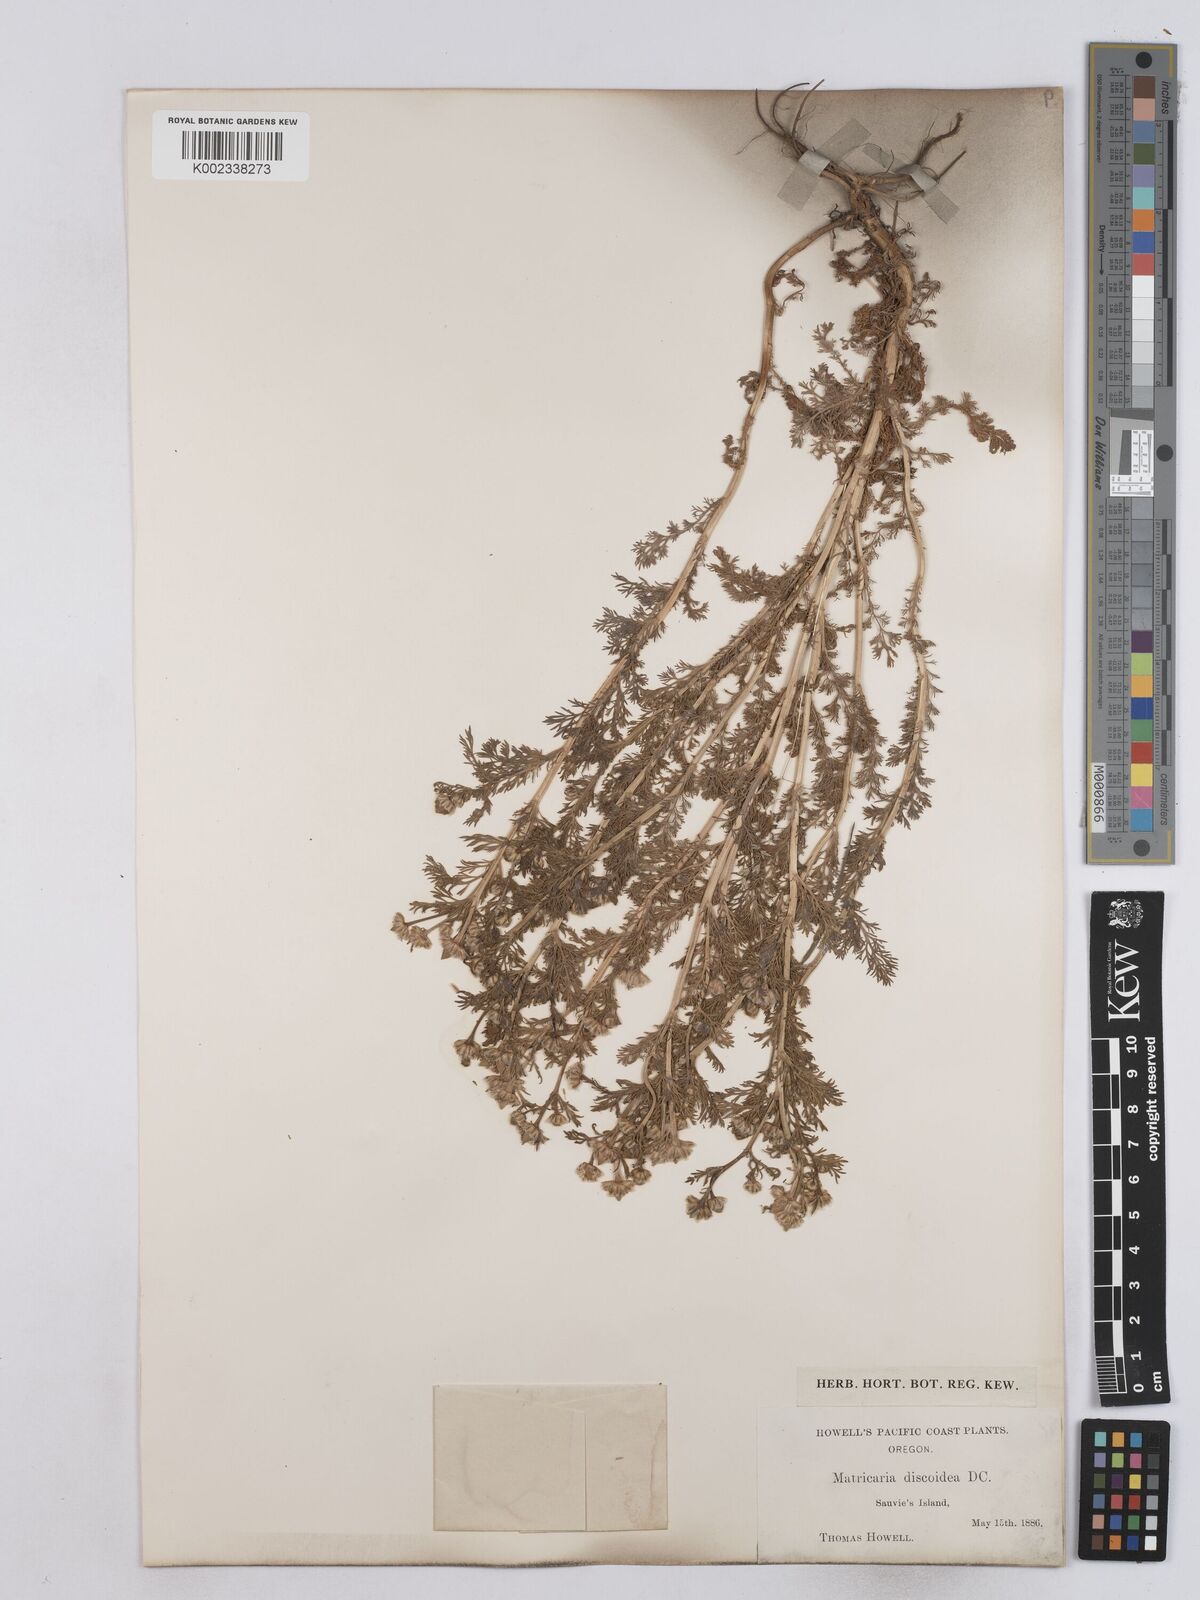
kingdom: Plantae
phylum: Tracheophyta
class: Magnoliopsida
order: Asterales
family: Asteraceae
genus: Matricaria
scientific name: Matricaria discoidea
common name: Disc mayweed
